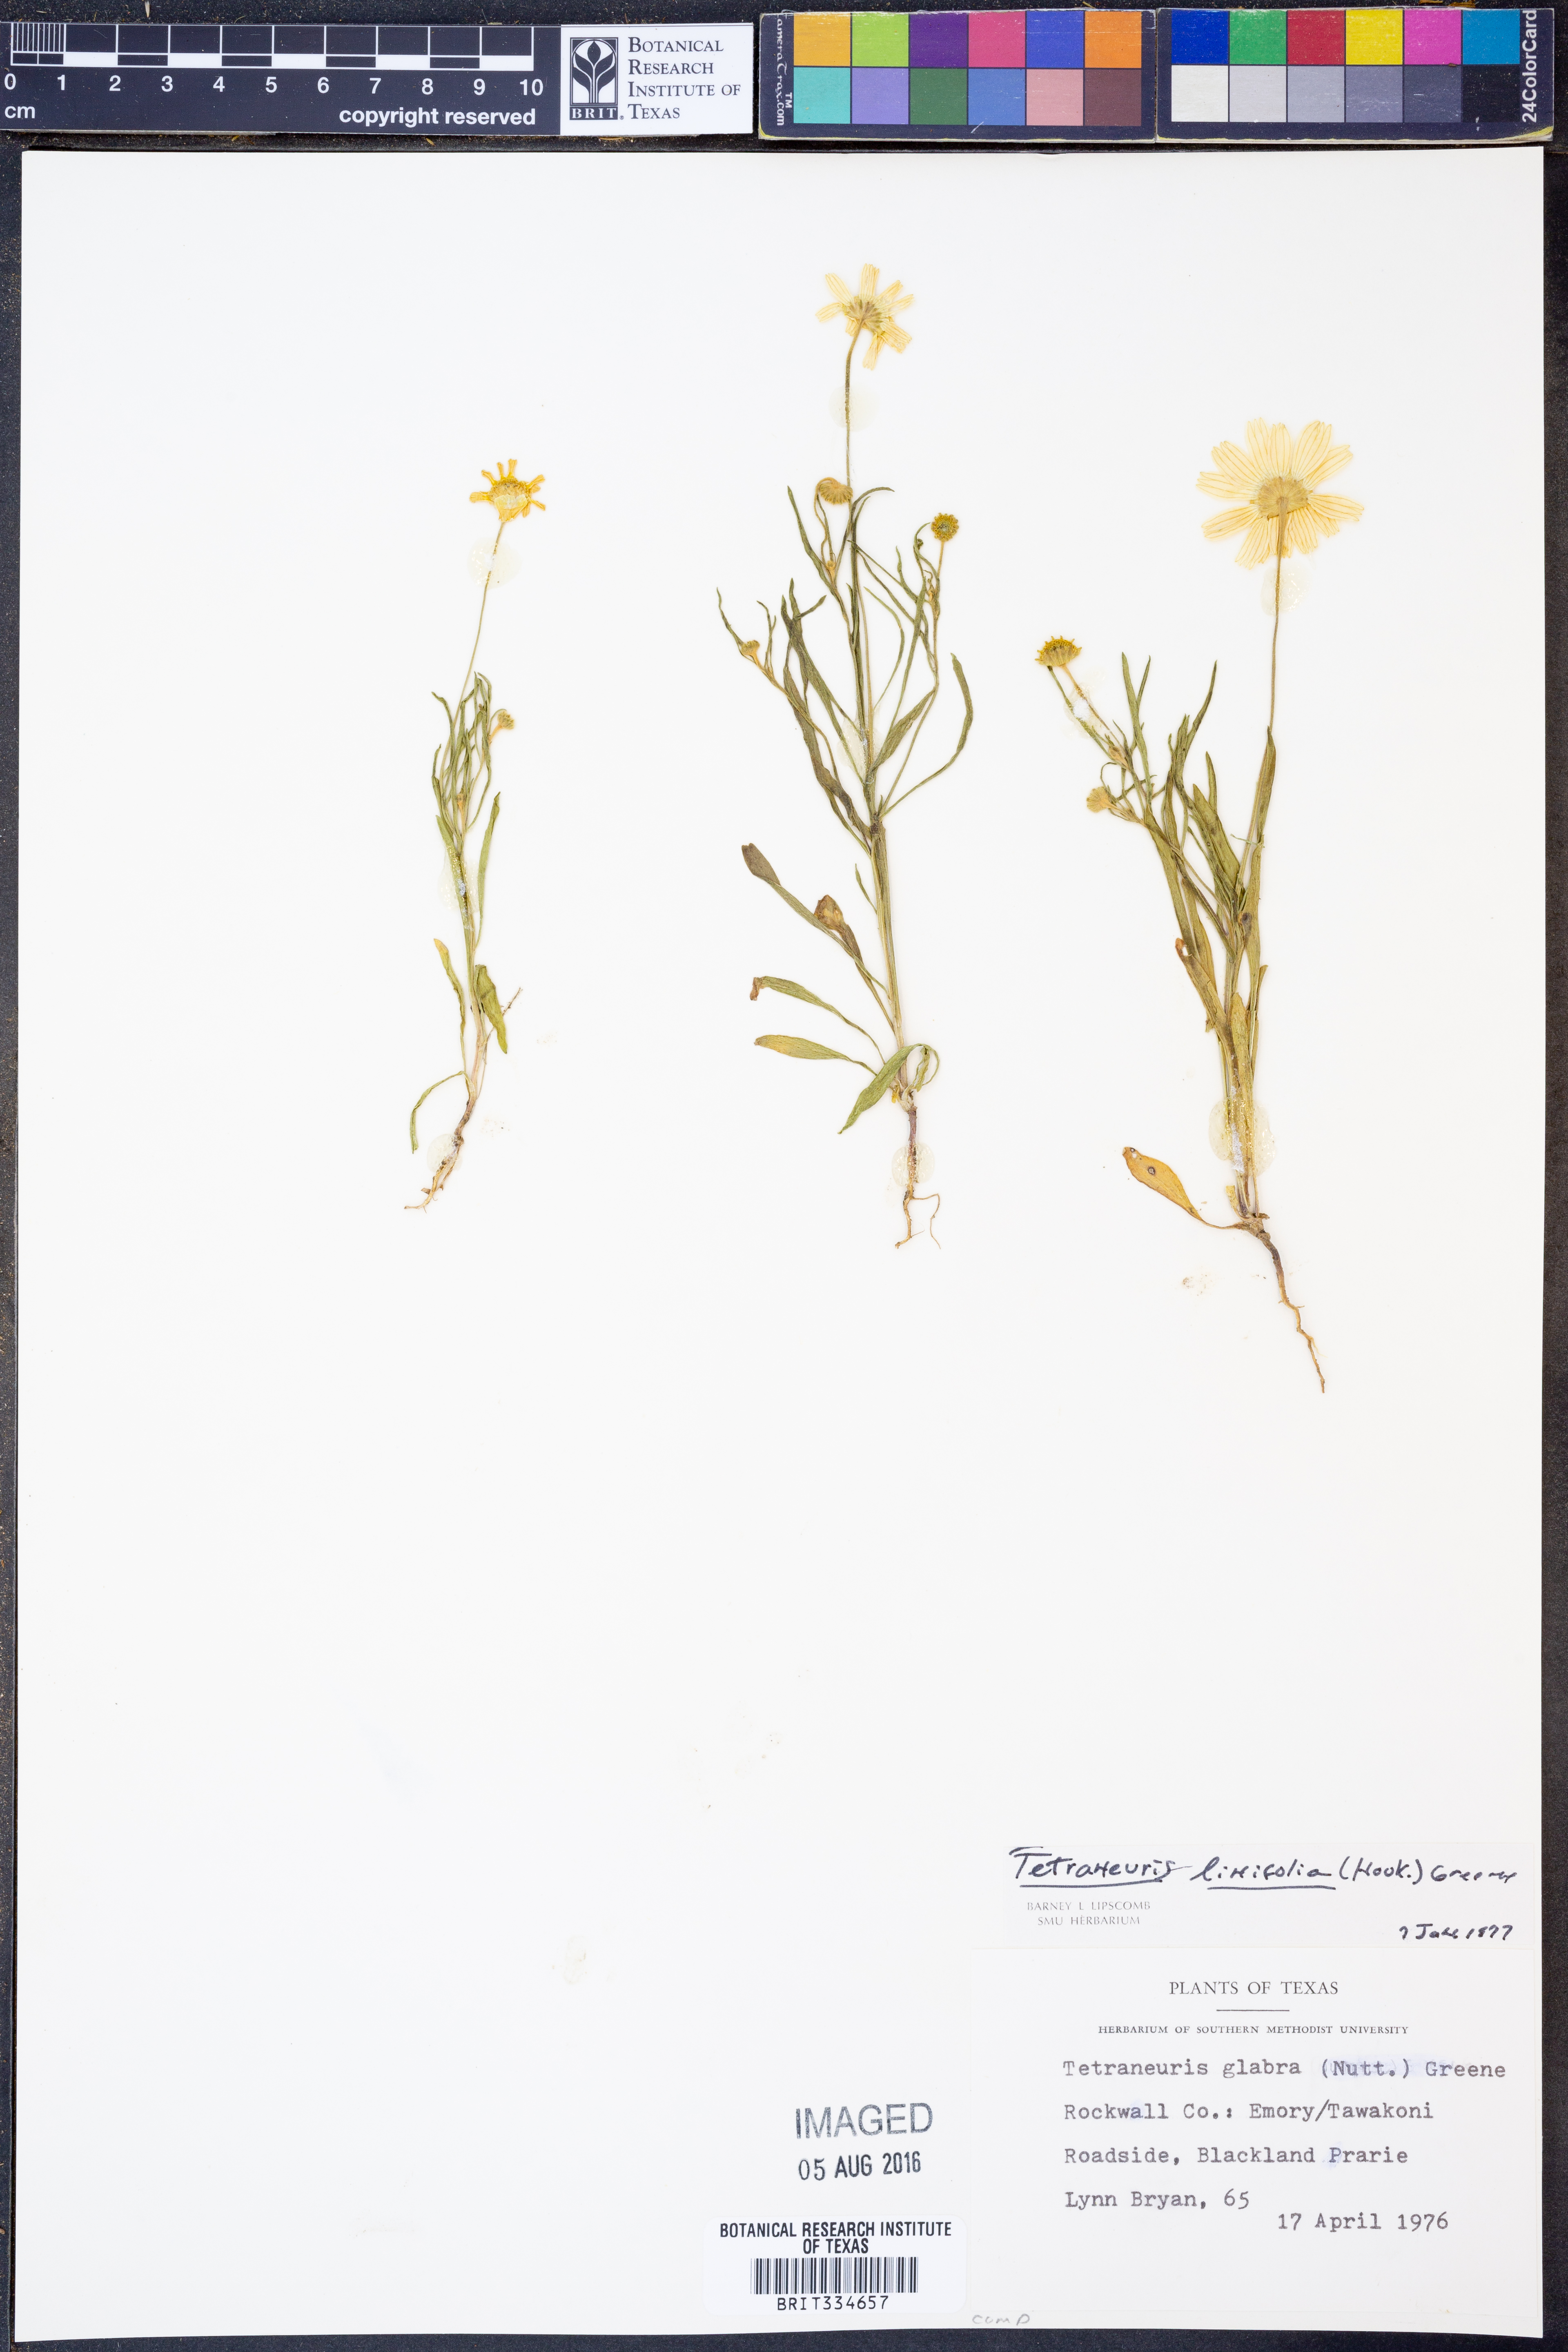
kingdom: Plantae
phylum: Tracheophyta
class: Magnoliopsida
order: Asterales
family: Asteraceae
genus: Tetraneuris
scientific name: Tetraneuris linearifolia
